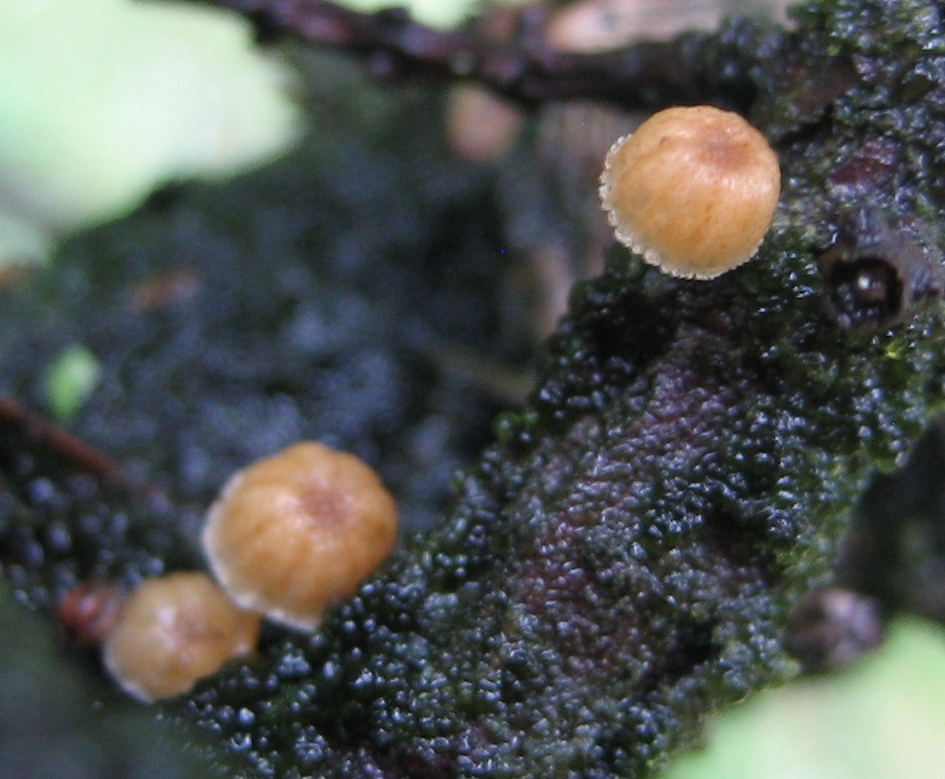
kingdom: Fungi
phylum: Basidiomycota
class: Agaricomycetes
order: Agaricales
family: Mycenaceae
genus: Mycena
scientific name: Mycena juniperina
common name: ene-Huesvamp
